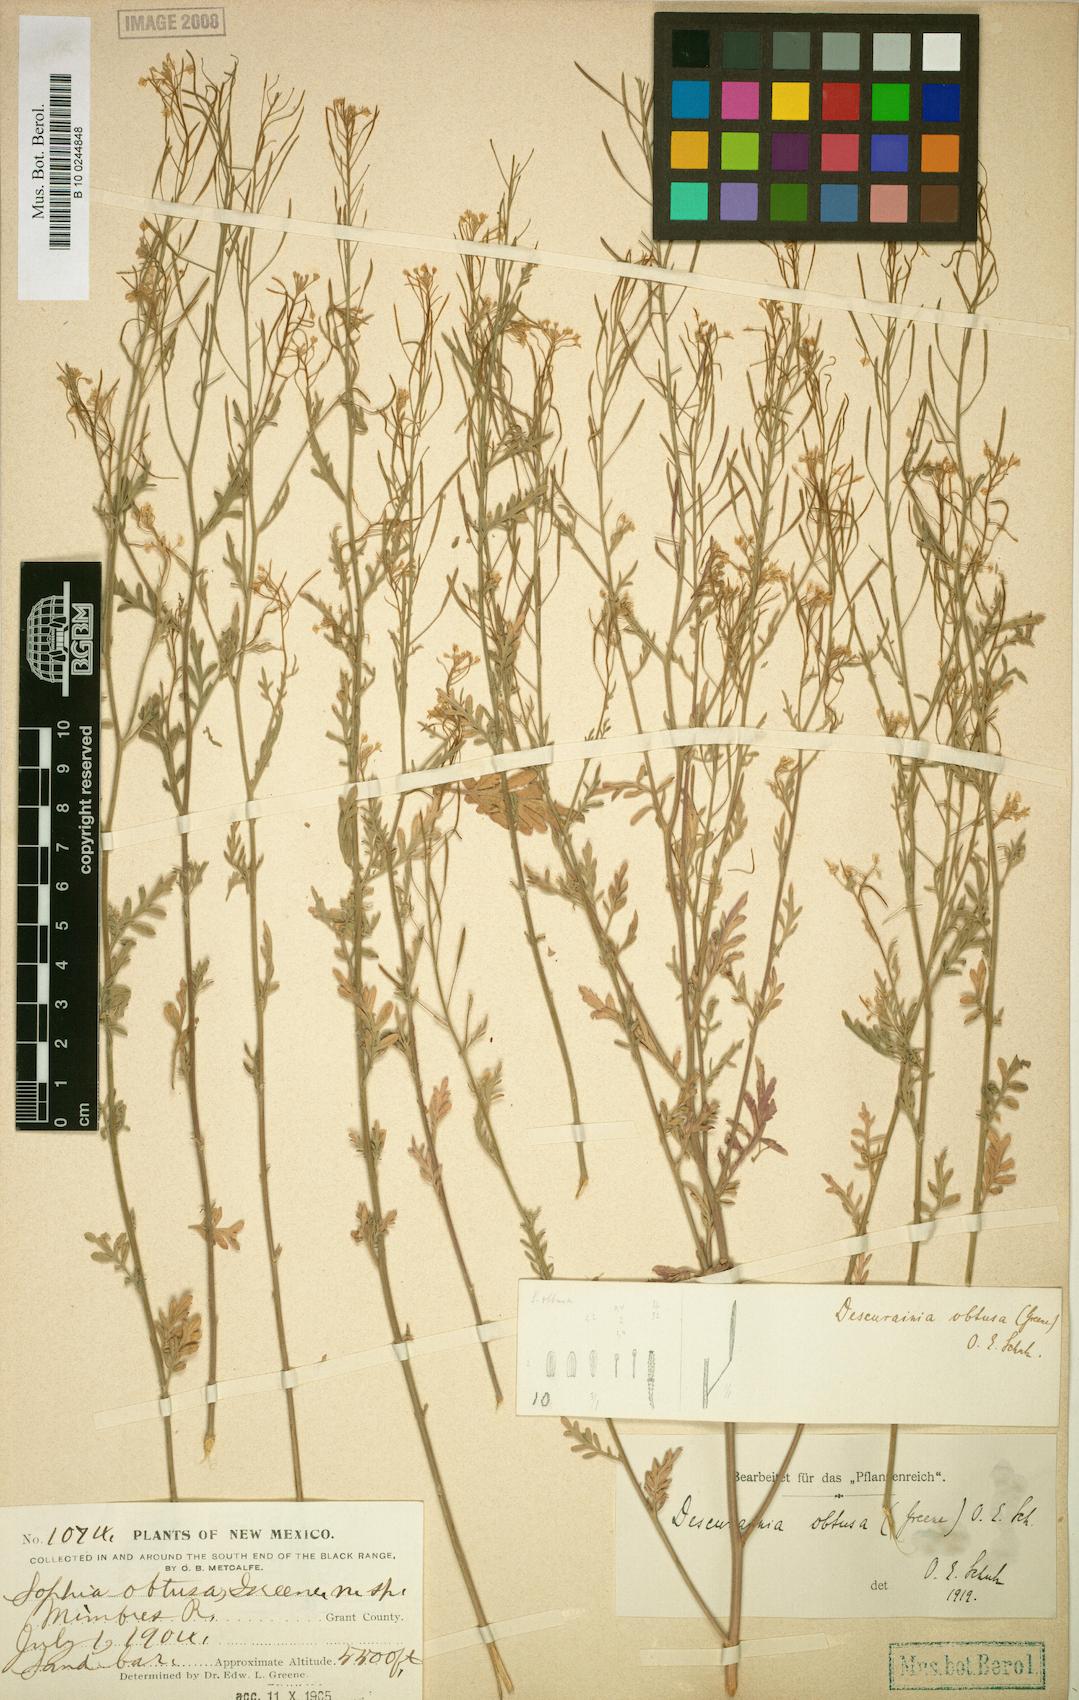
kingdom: Plantae
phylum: Tracheophyta
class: Magnoliopsida
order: Brassicales
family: Brassicaceae
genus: Descurainia
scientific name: Descurainia obtusa
